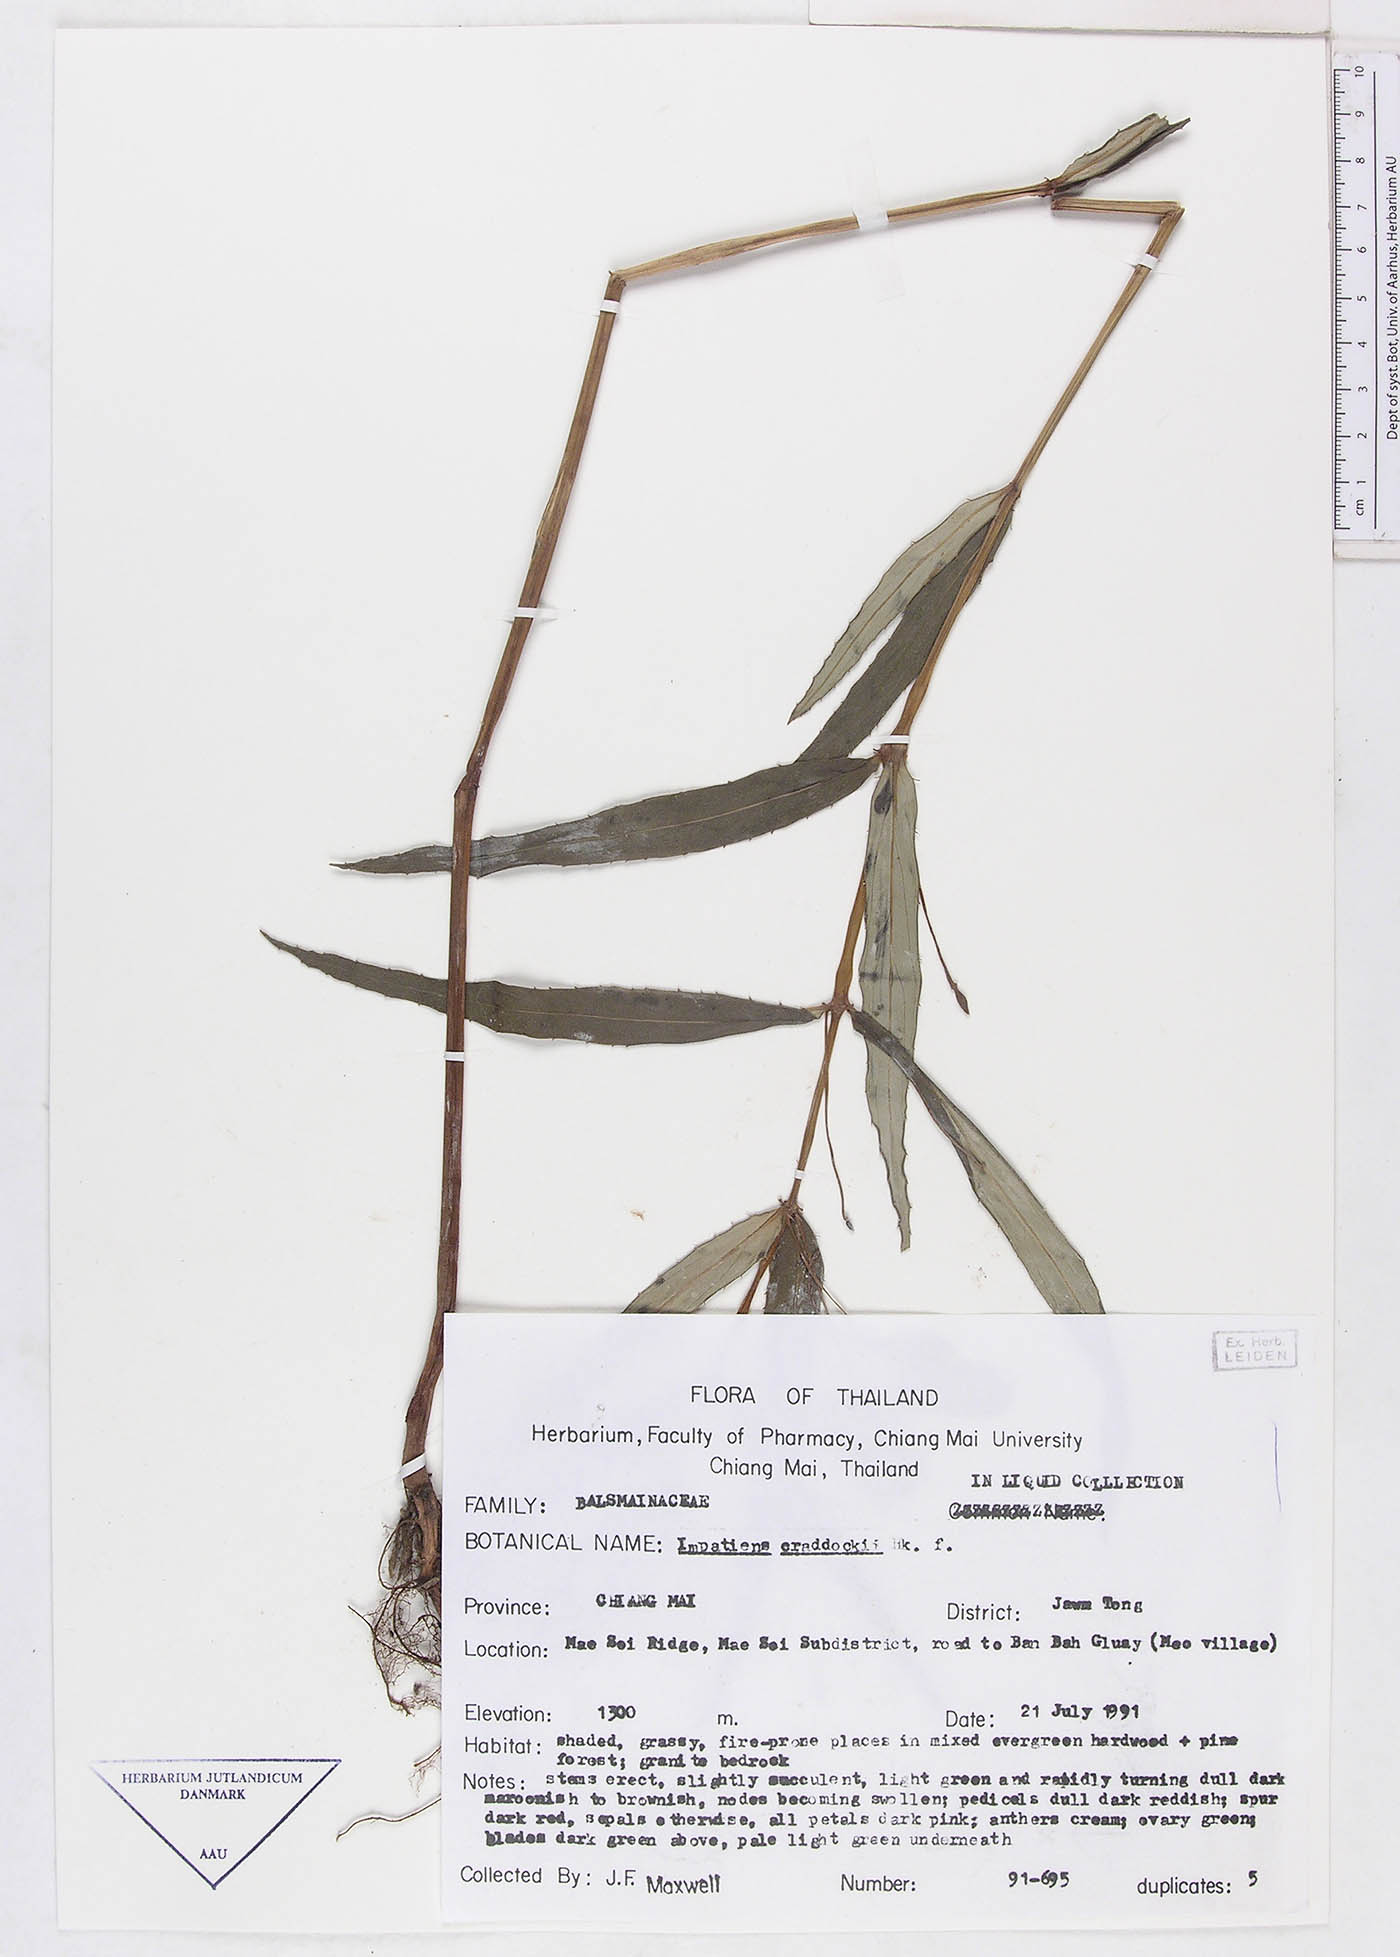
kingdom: Plantae
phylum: Tracheophyta
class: Magnoliopsida
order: Ericales
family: Balsaminaceae
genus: Impatiens
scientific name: Impatiens masonii
